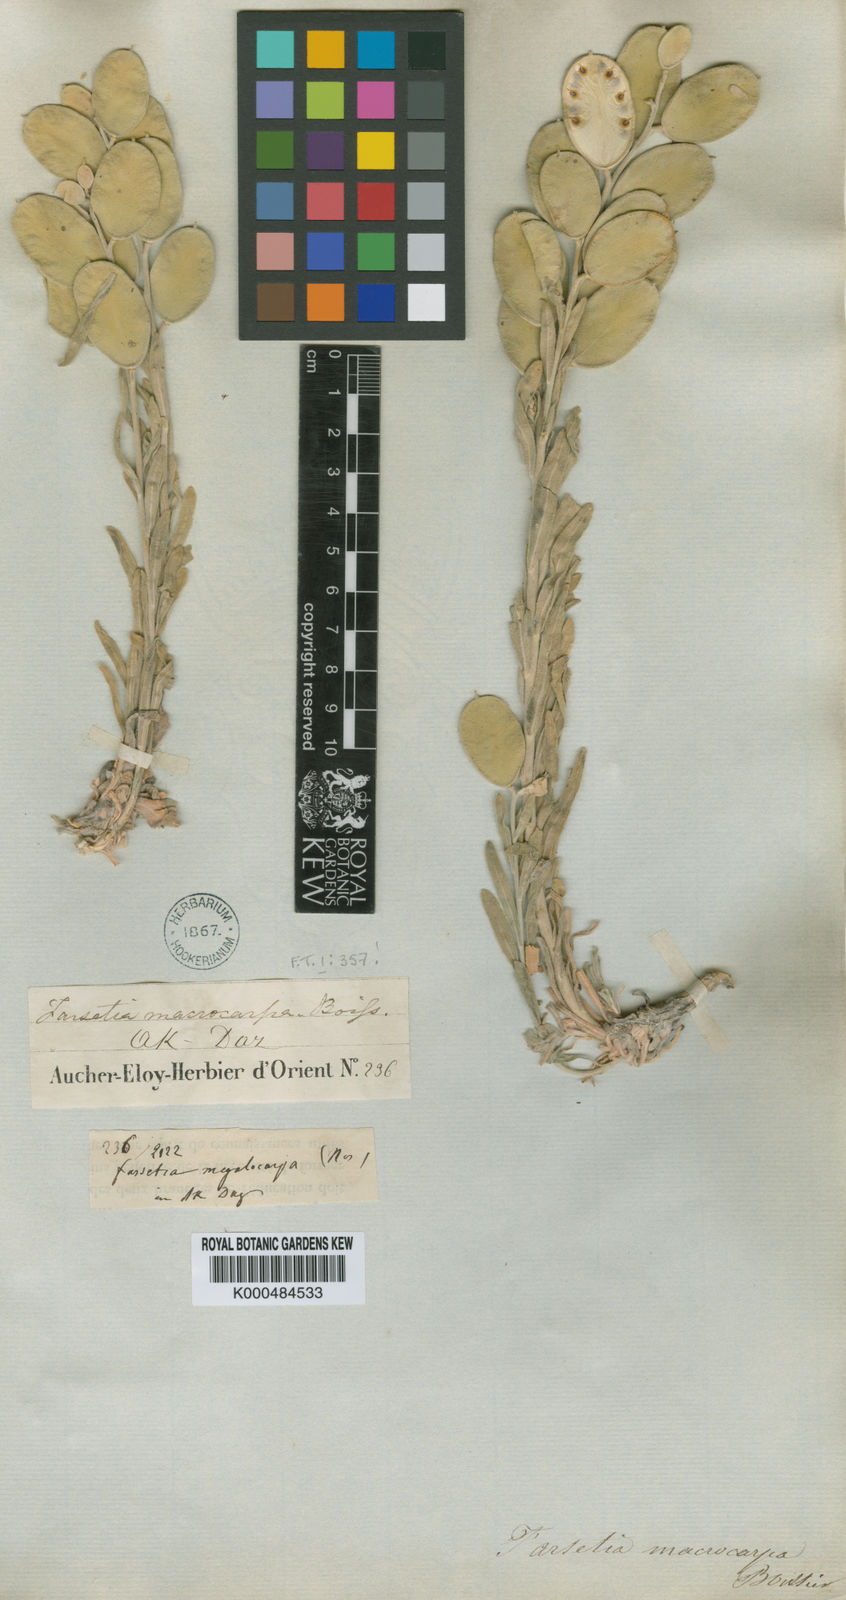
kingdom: Plantae
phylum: Tracheophyta
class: Magnoliopsida
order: Brassicales
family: Brassicaceae
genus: Fibigia
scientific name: Fibigia macrocarpa
